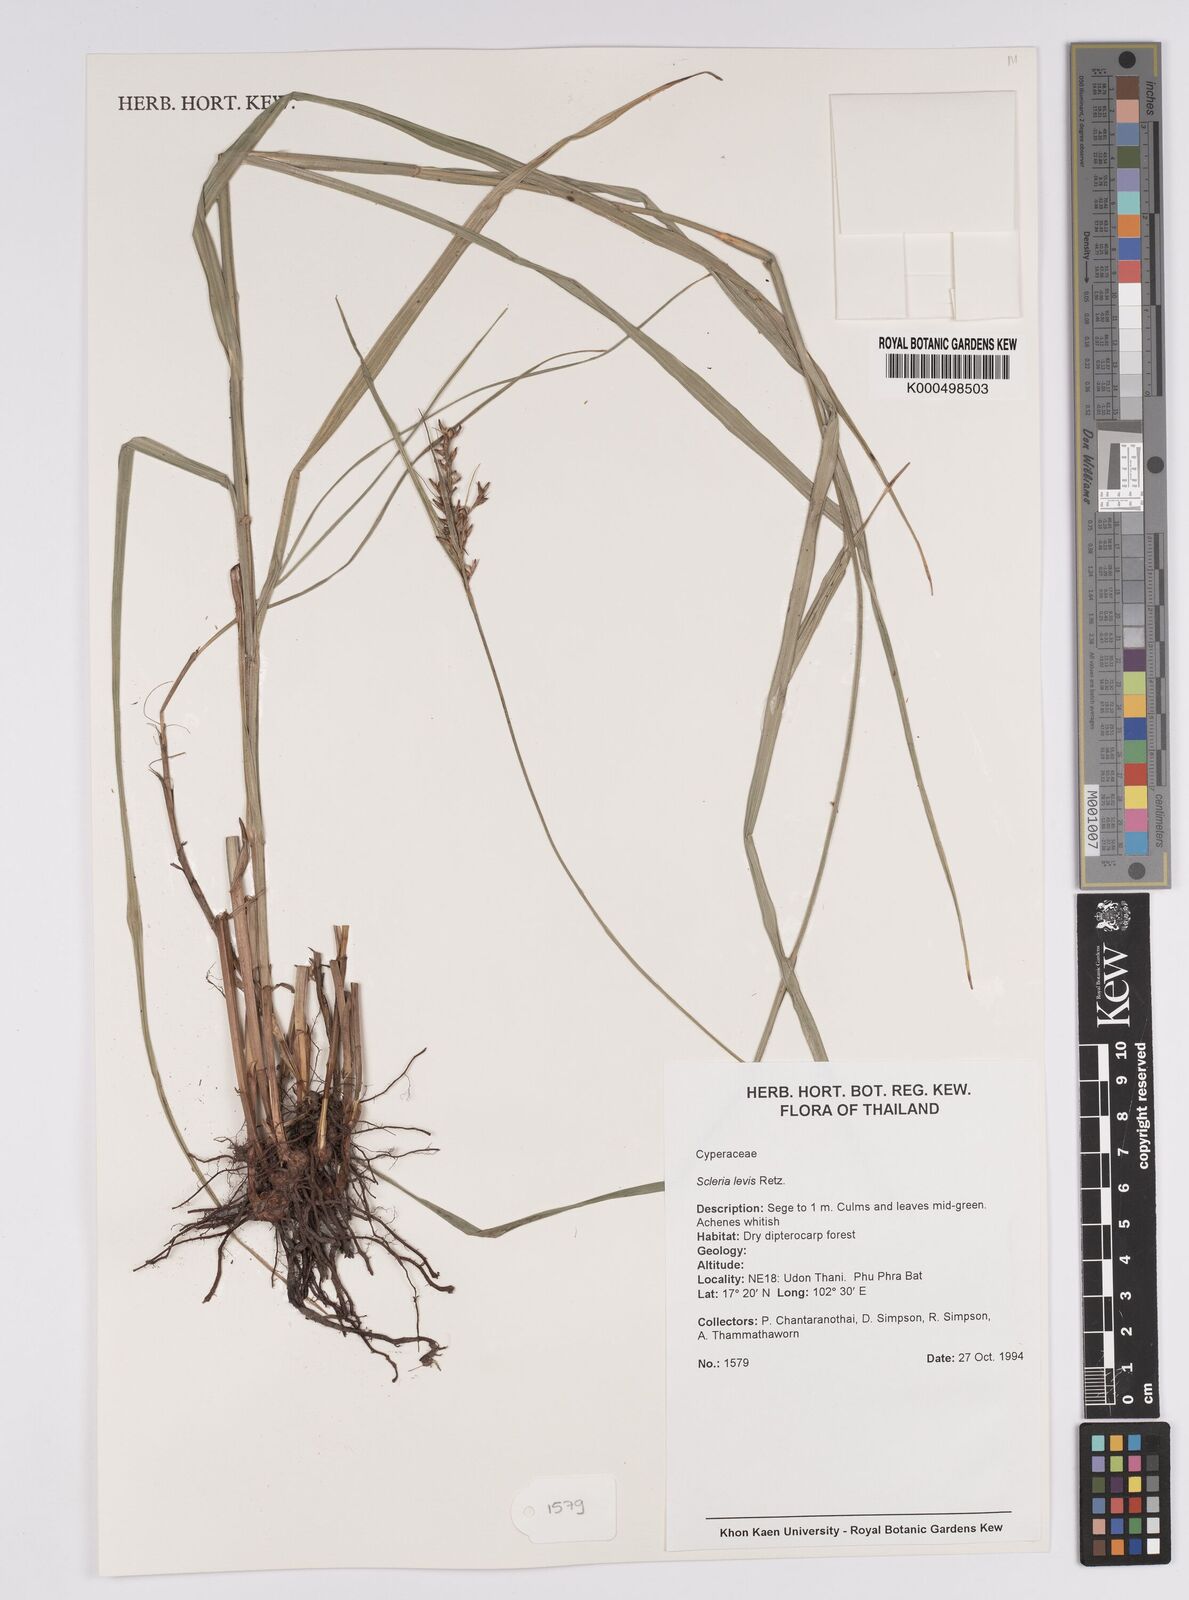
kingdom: Plantae
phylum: Tracheophyta
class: Liliopsida
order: Poales
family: Cyperaceae
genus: Scleria
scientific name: Scleria levis
